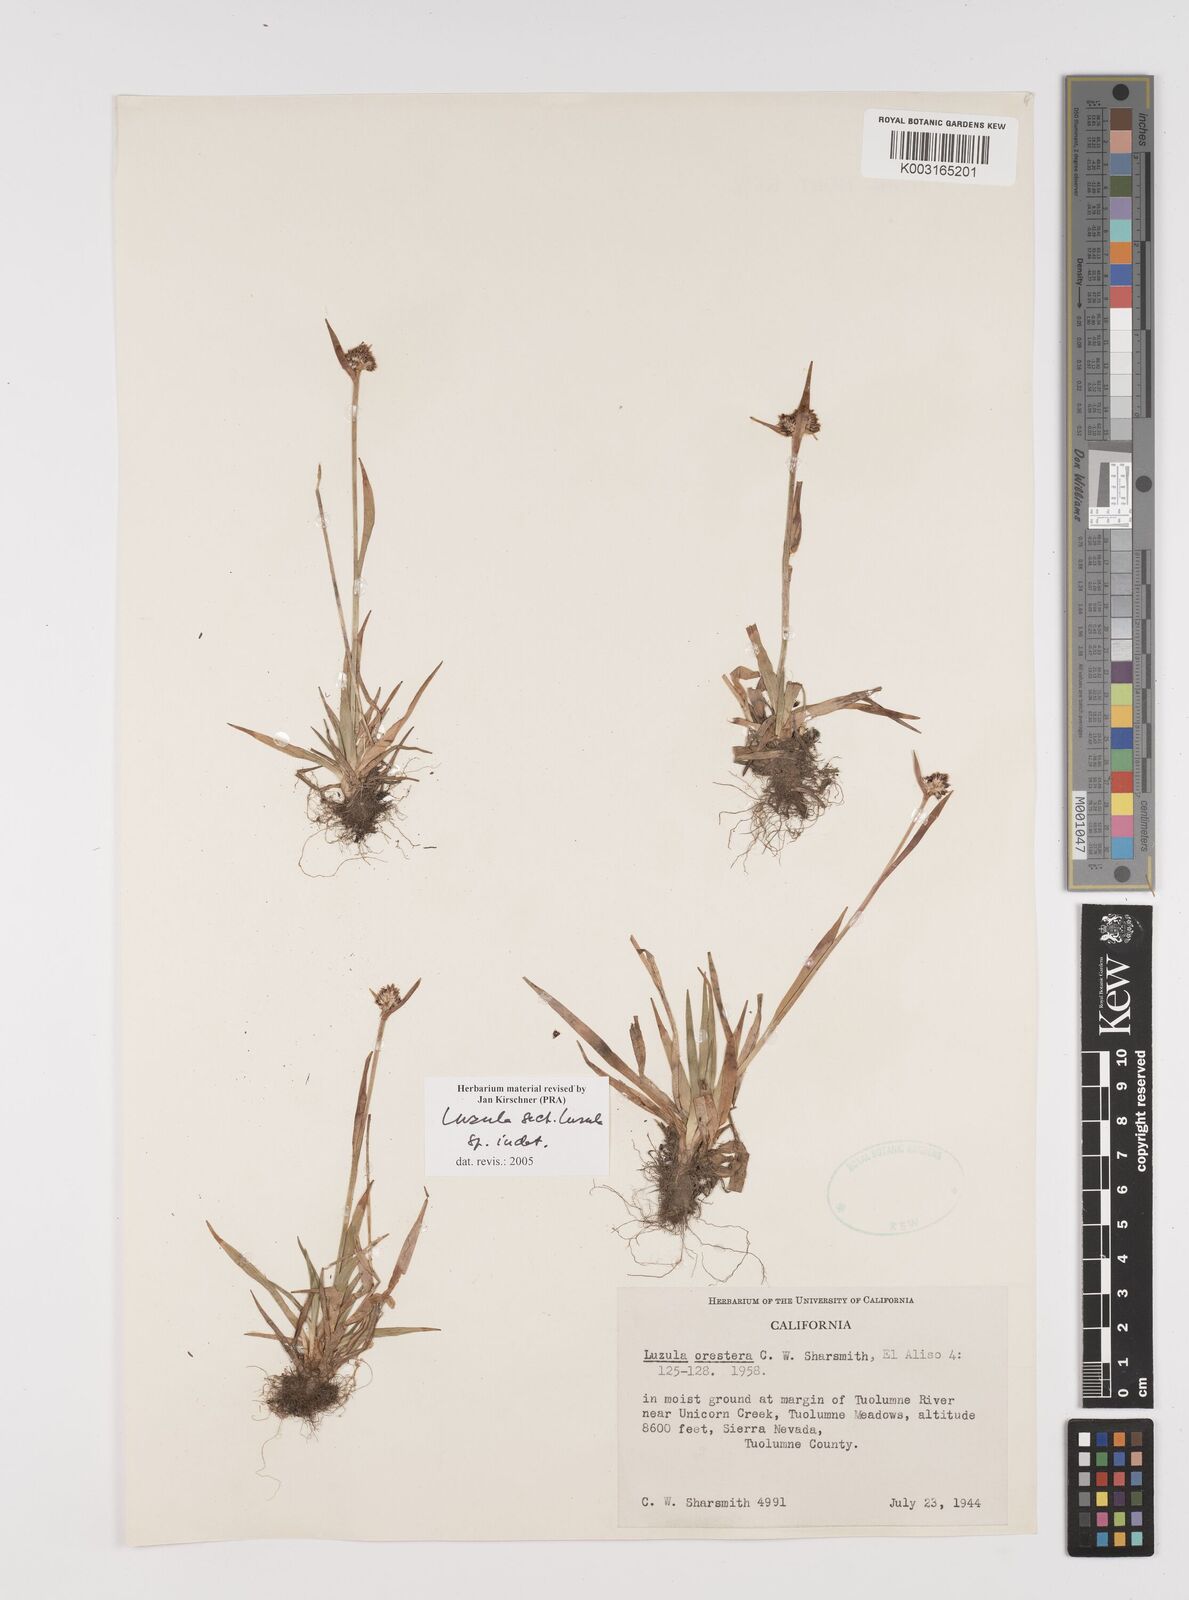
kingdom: Plantae
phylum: Tracheophyta
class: Liliopsida
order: Poales
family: Juncaceae
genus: Luzula
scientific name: Luzula
